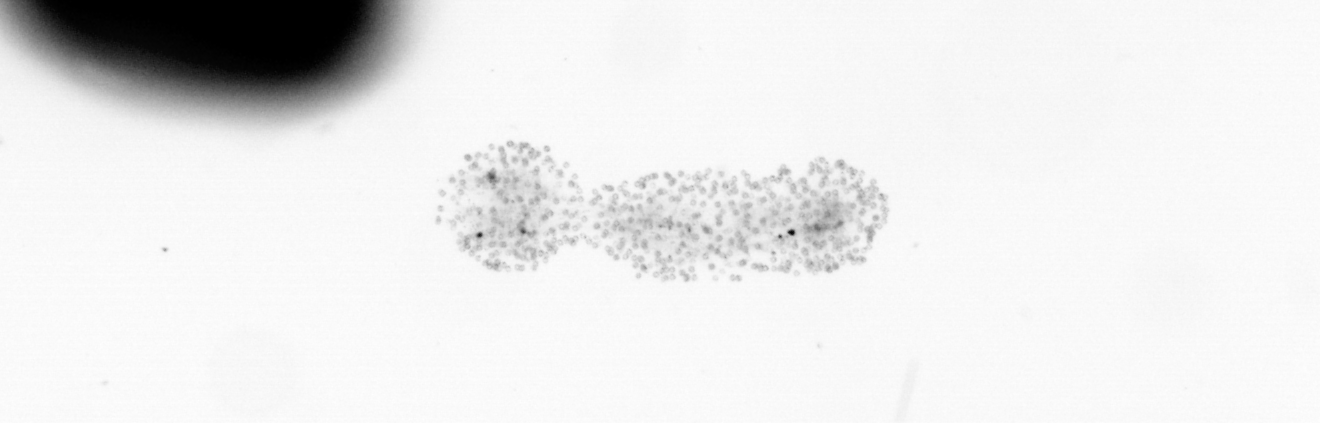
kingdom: Chromista
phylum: Ochrophyta
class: Bacillariophyceae
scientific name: Bacillariophyceae
